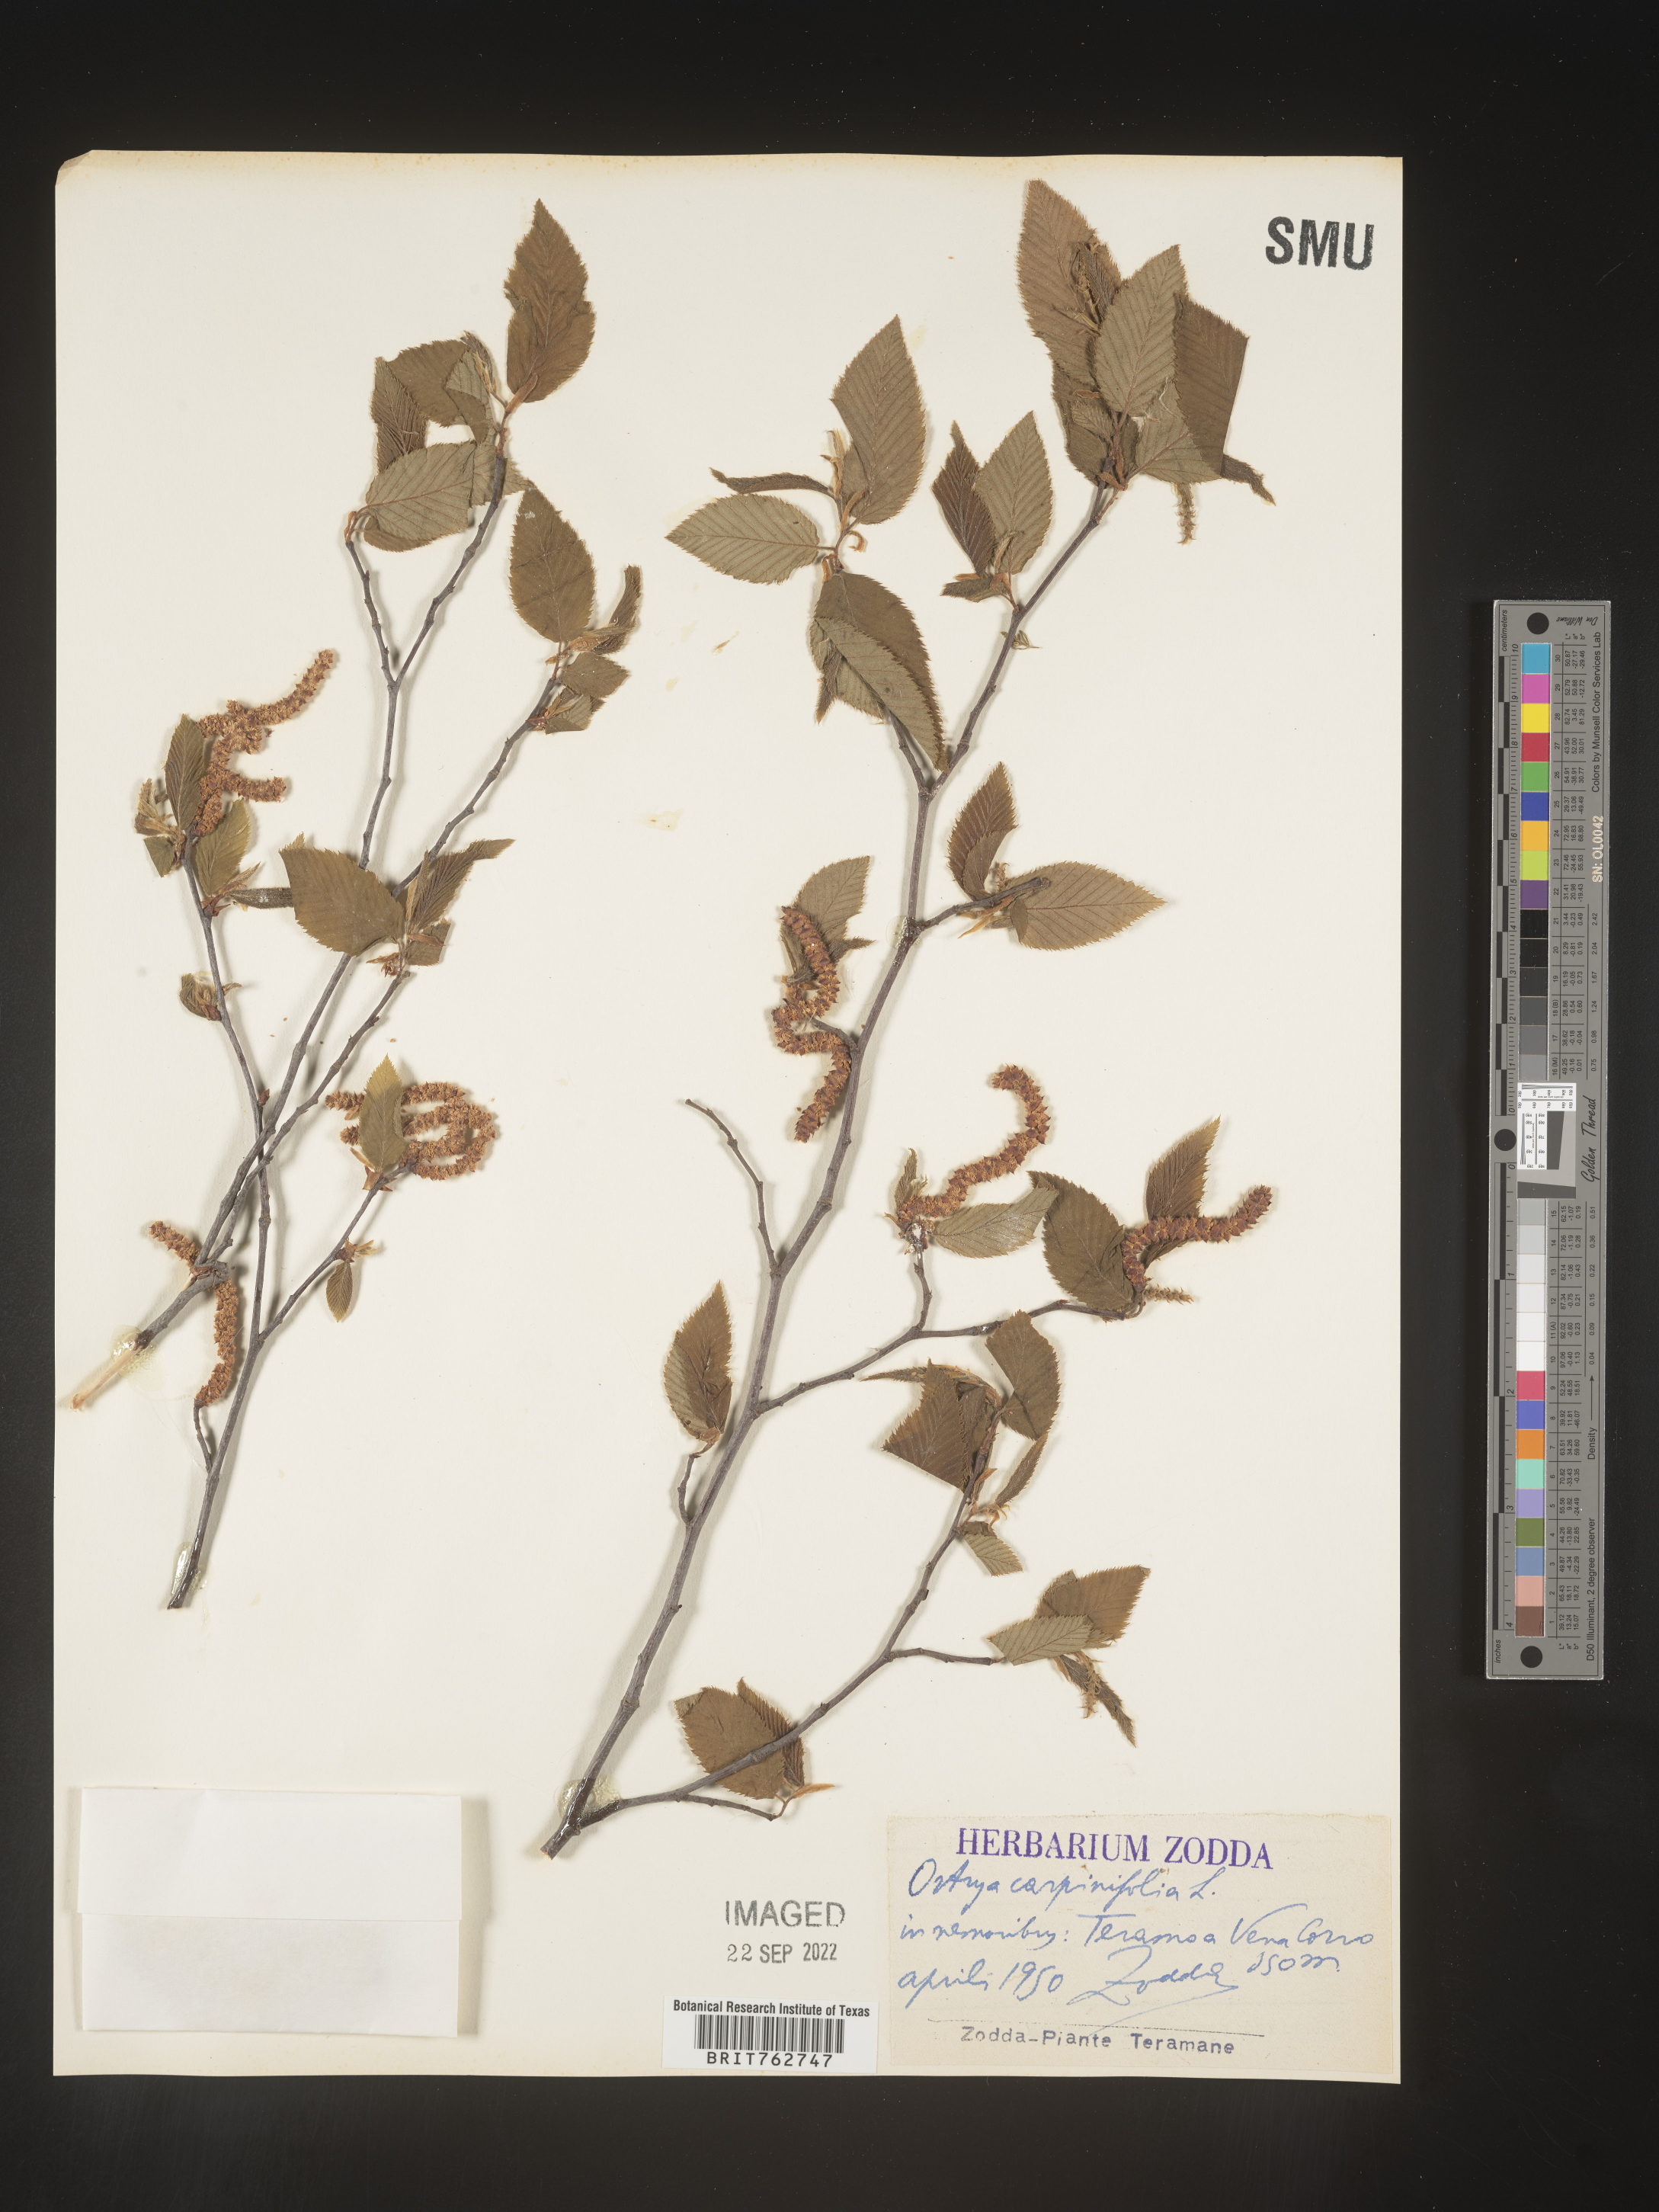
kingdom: Plantae
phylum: Tracheophyta
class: Magnoliopsida
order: Fagales
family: Betulaceae
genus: Ostrya
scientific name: Ostrya
